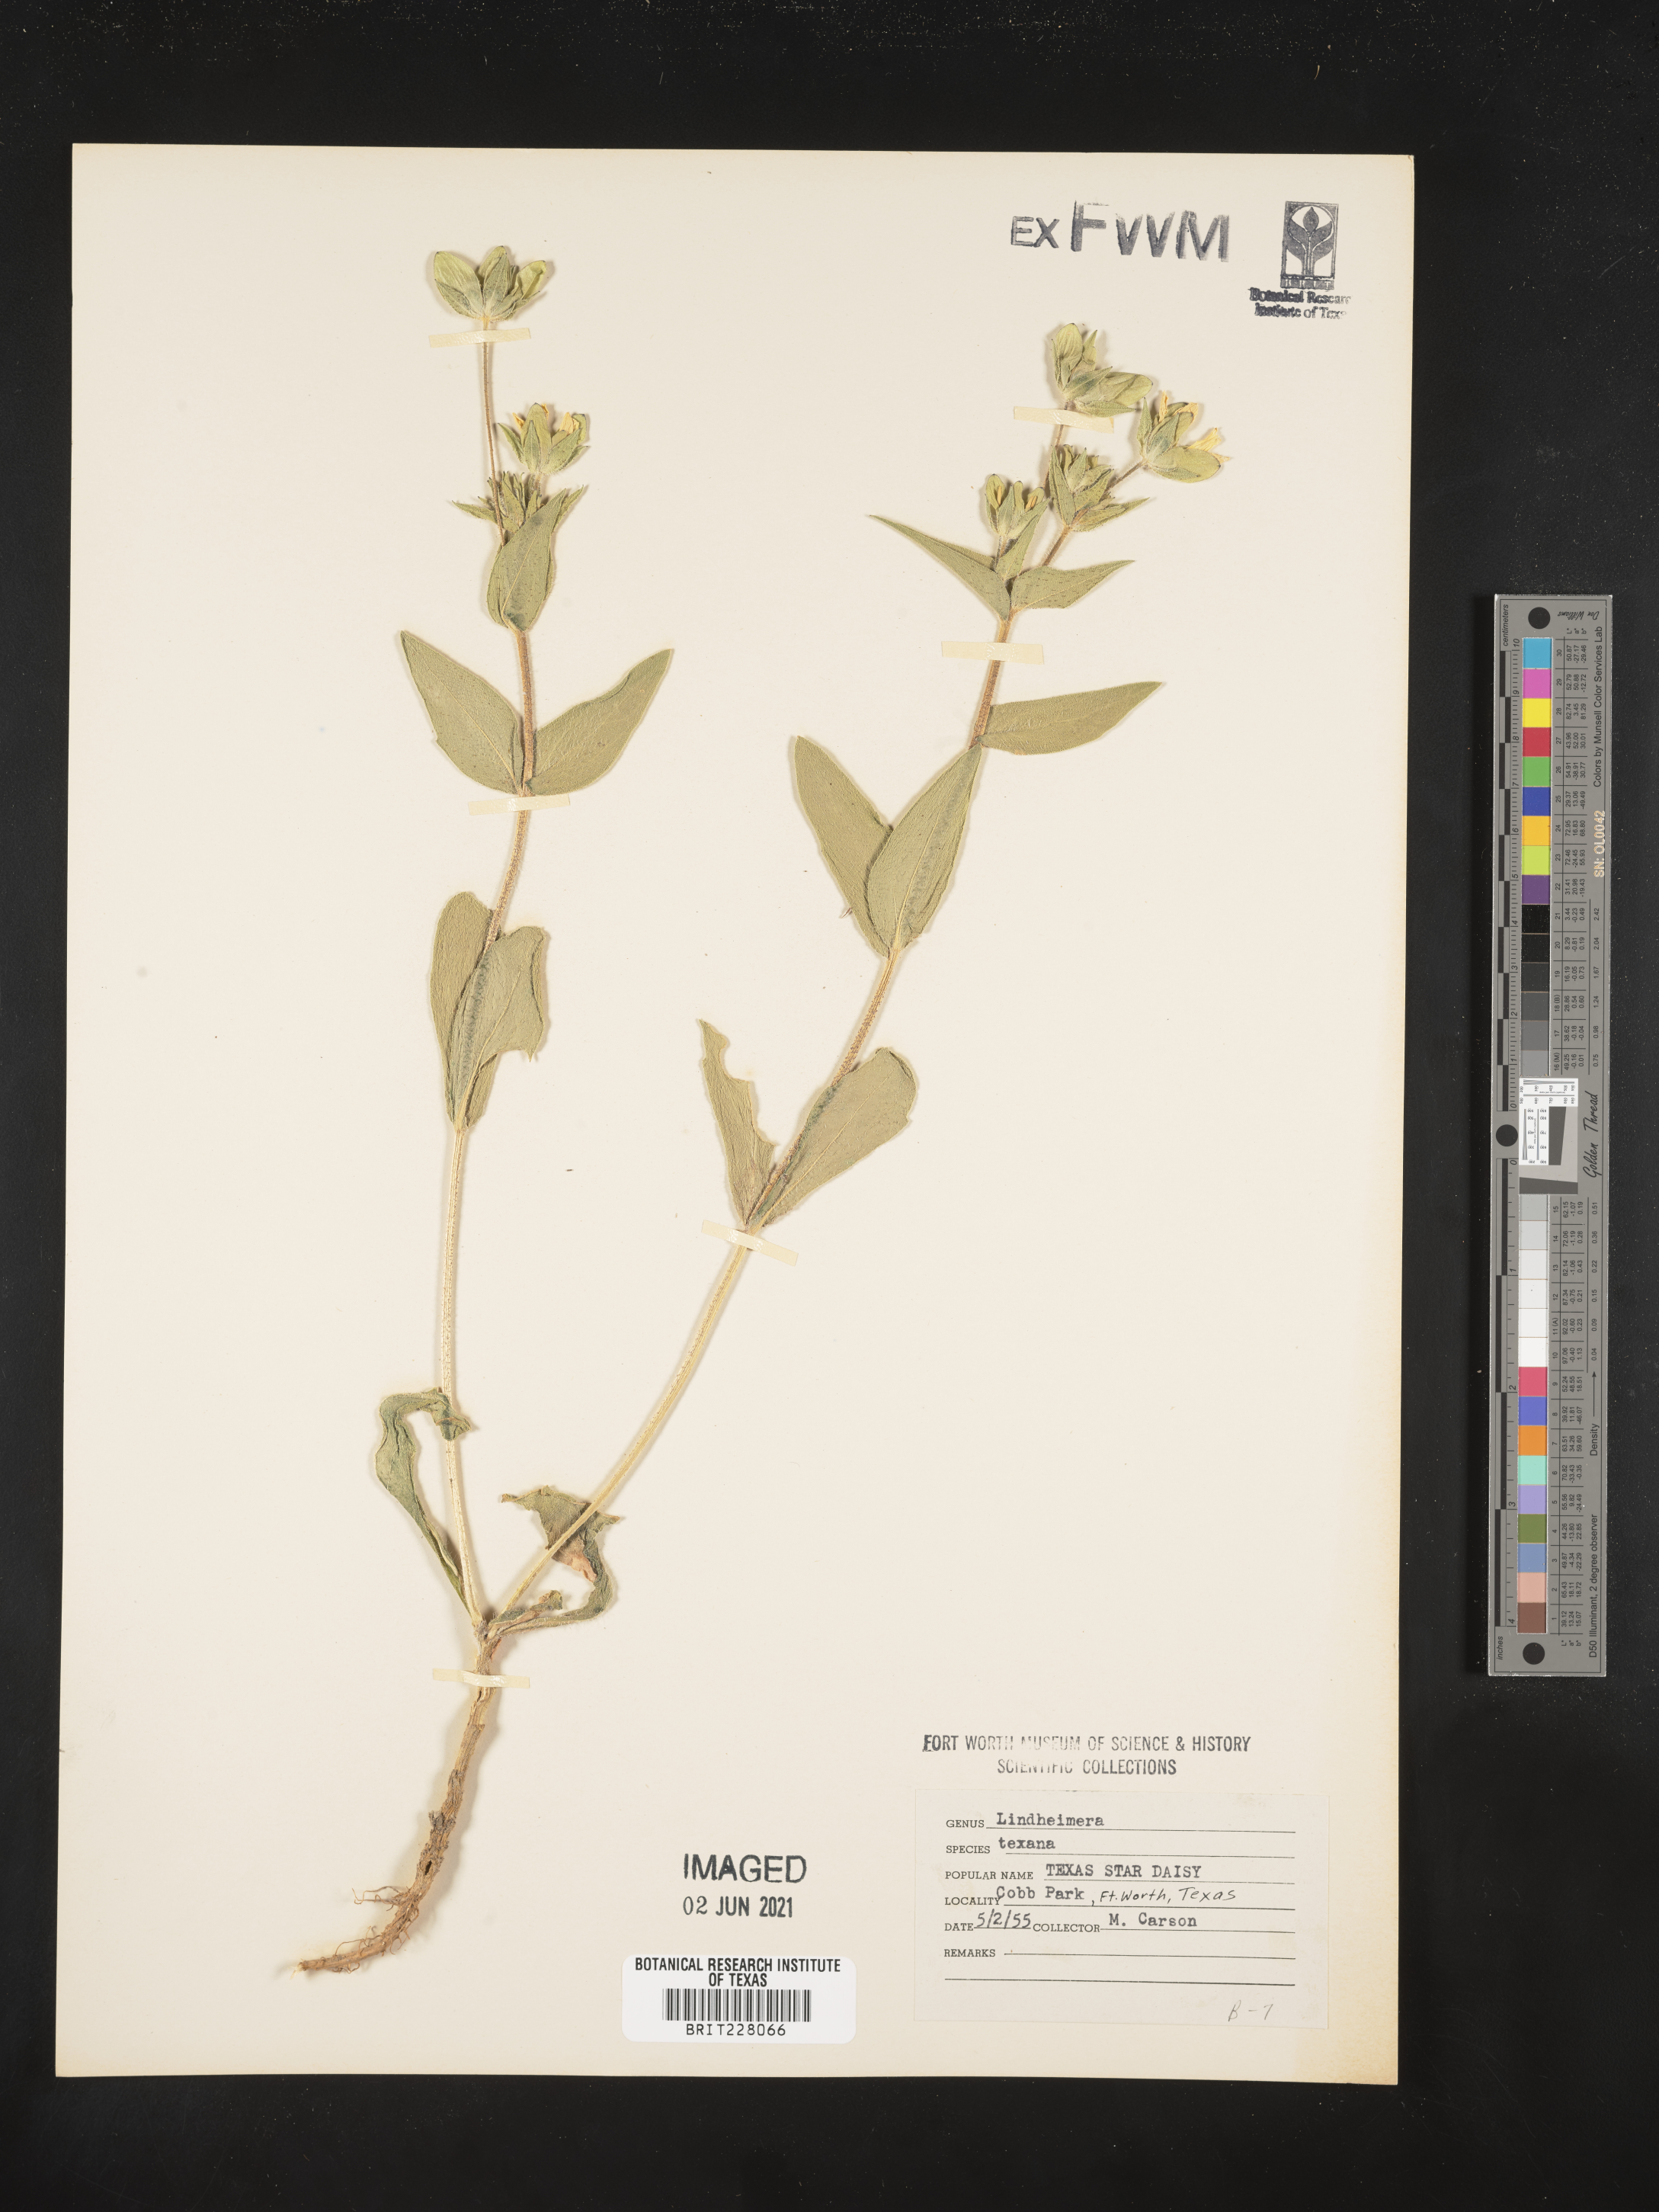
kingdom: Plantae
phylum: Tracheophyta
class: Magnoliopsida
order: Asterales
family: Asteraceae
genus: Lindheimera
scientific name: Lindheimera texana
